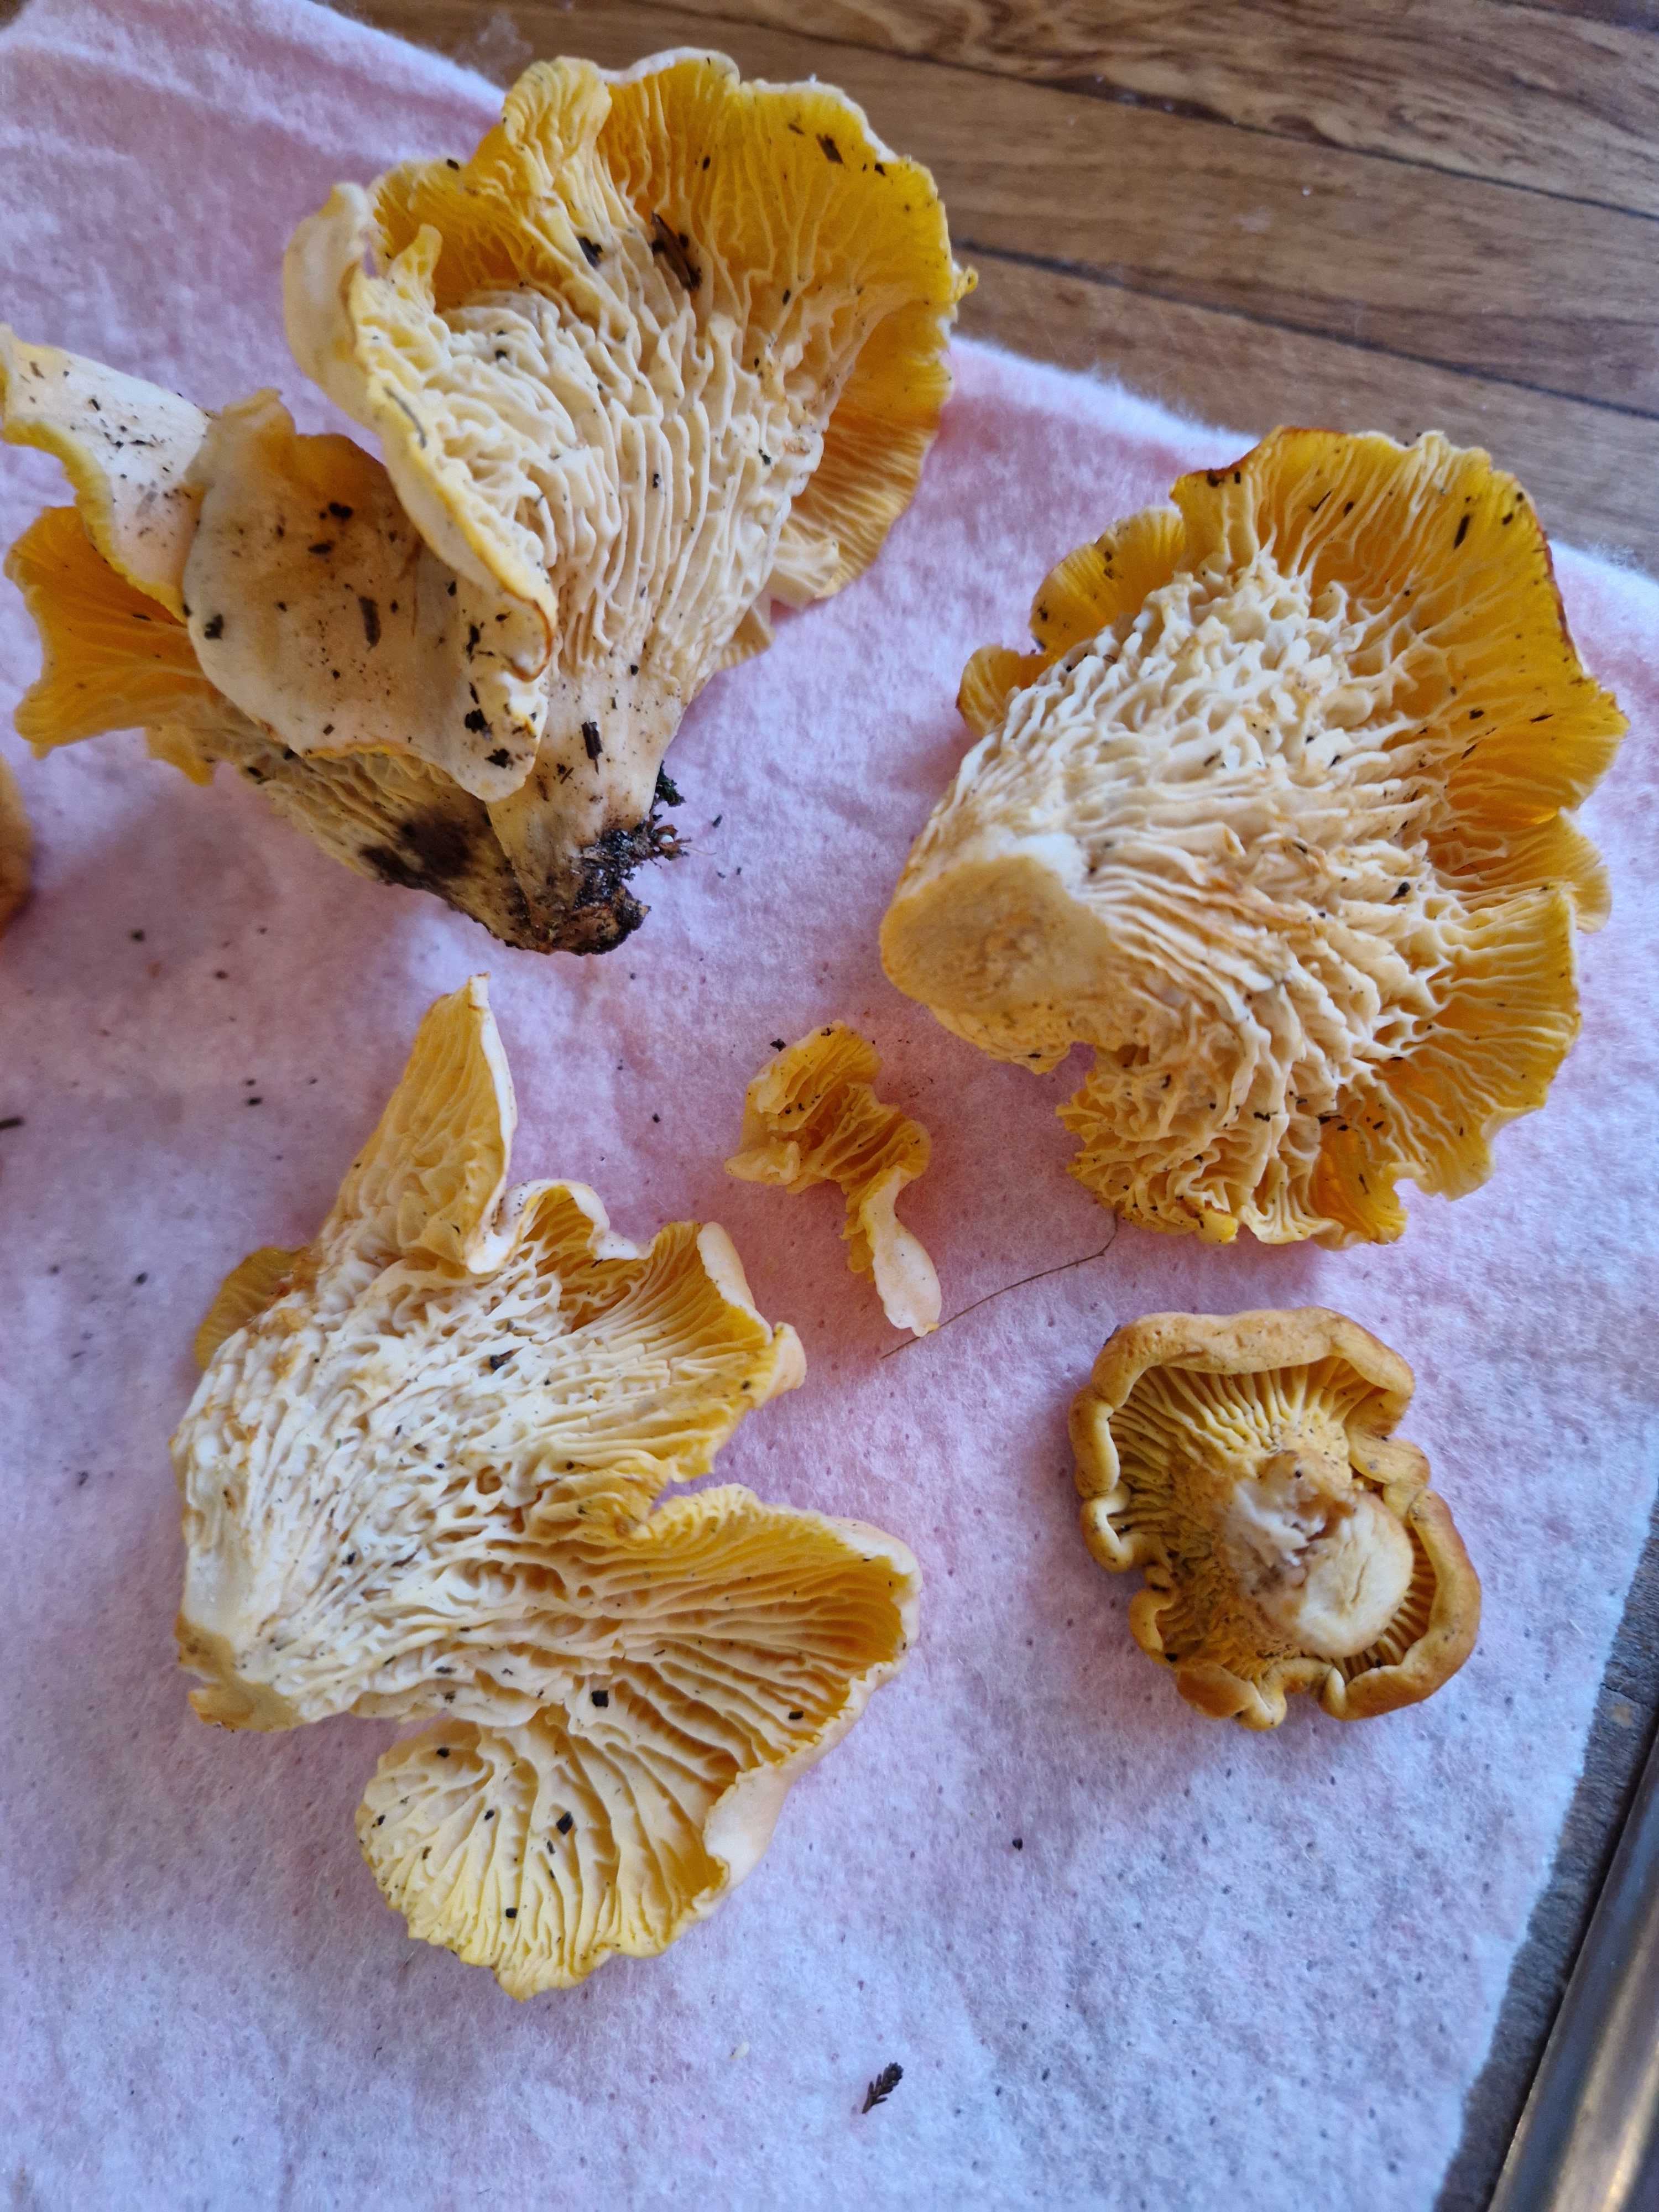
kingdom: Fungi
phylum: Basidiomycota
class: Agaricomycetes
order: Cantharellales
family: Hydnaceae
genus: Cantharellus
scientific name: Cantharellus cibarius
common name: almindelig kantarel
